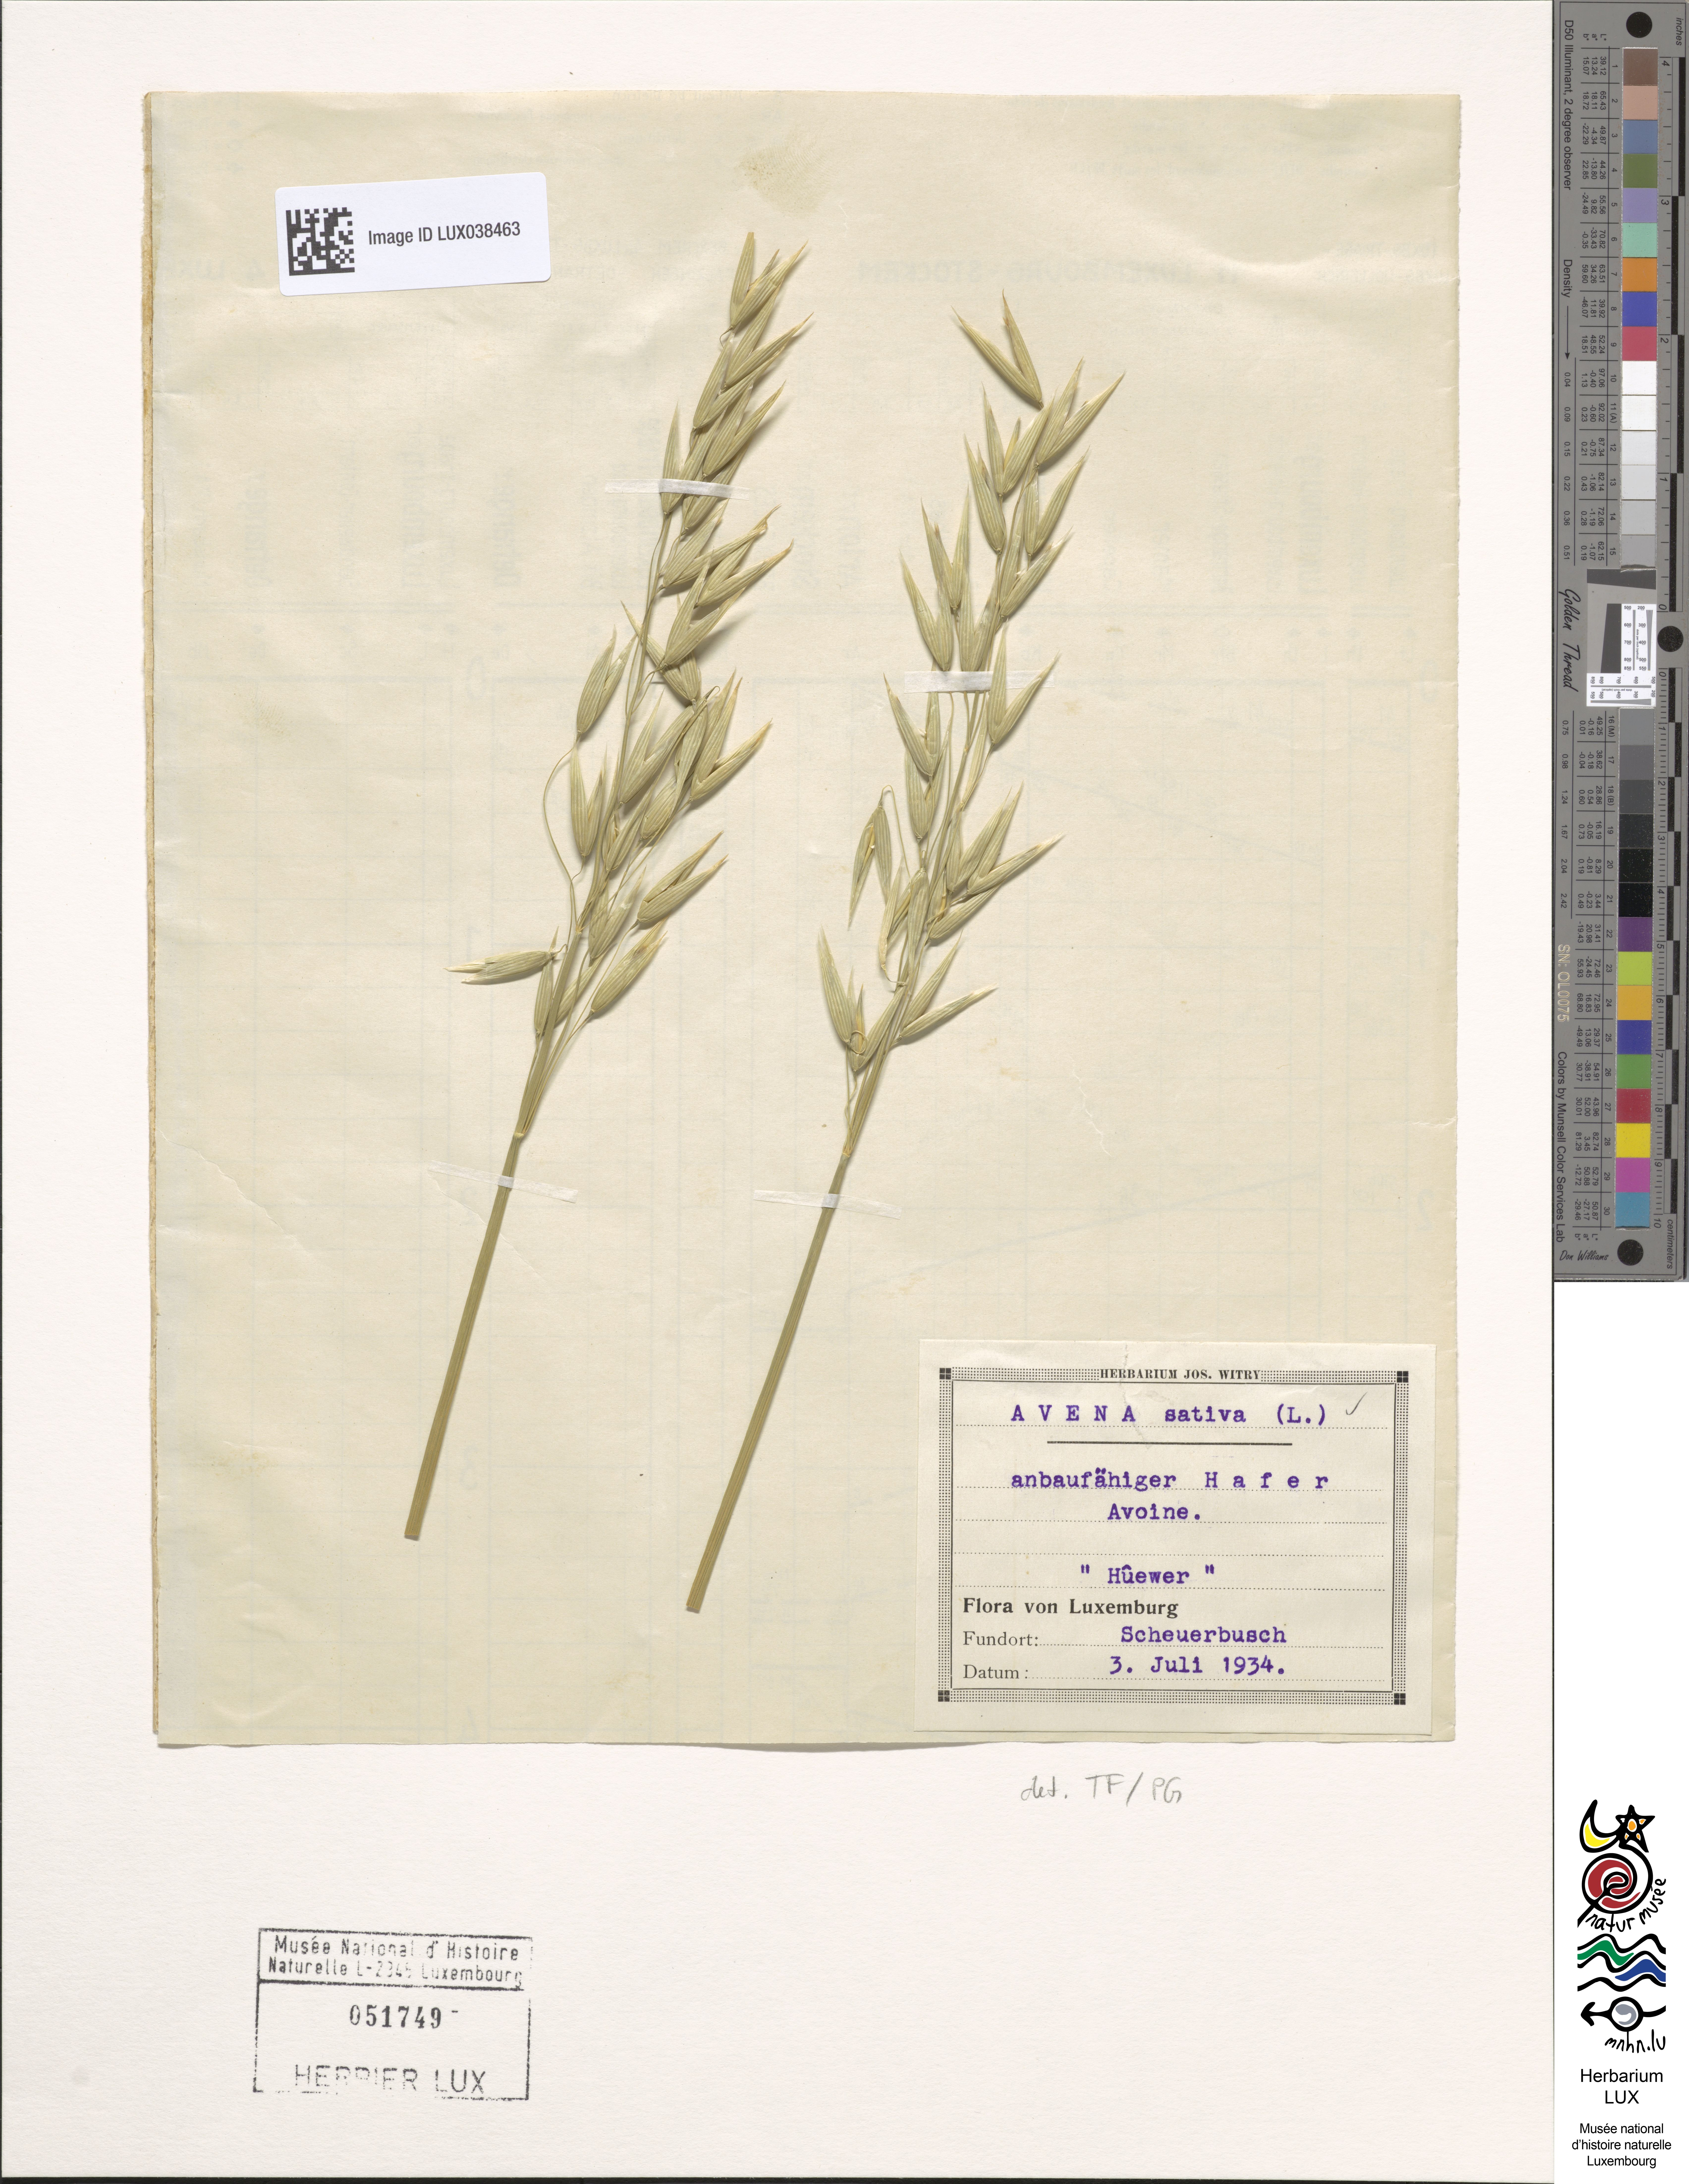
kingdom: Plantae
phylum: Tracheophyta
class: Liliopsida
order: Poales
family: Poaceae
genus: Avena
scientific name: Avena sativa
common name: Oat
